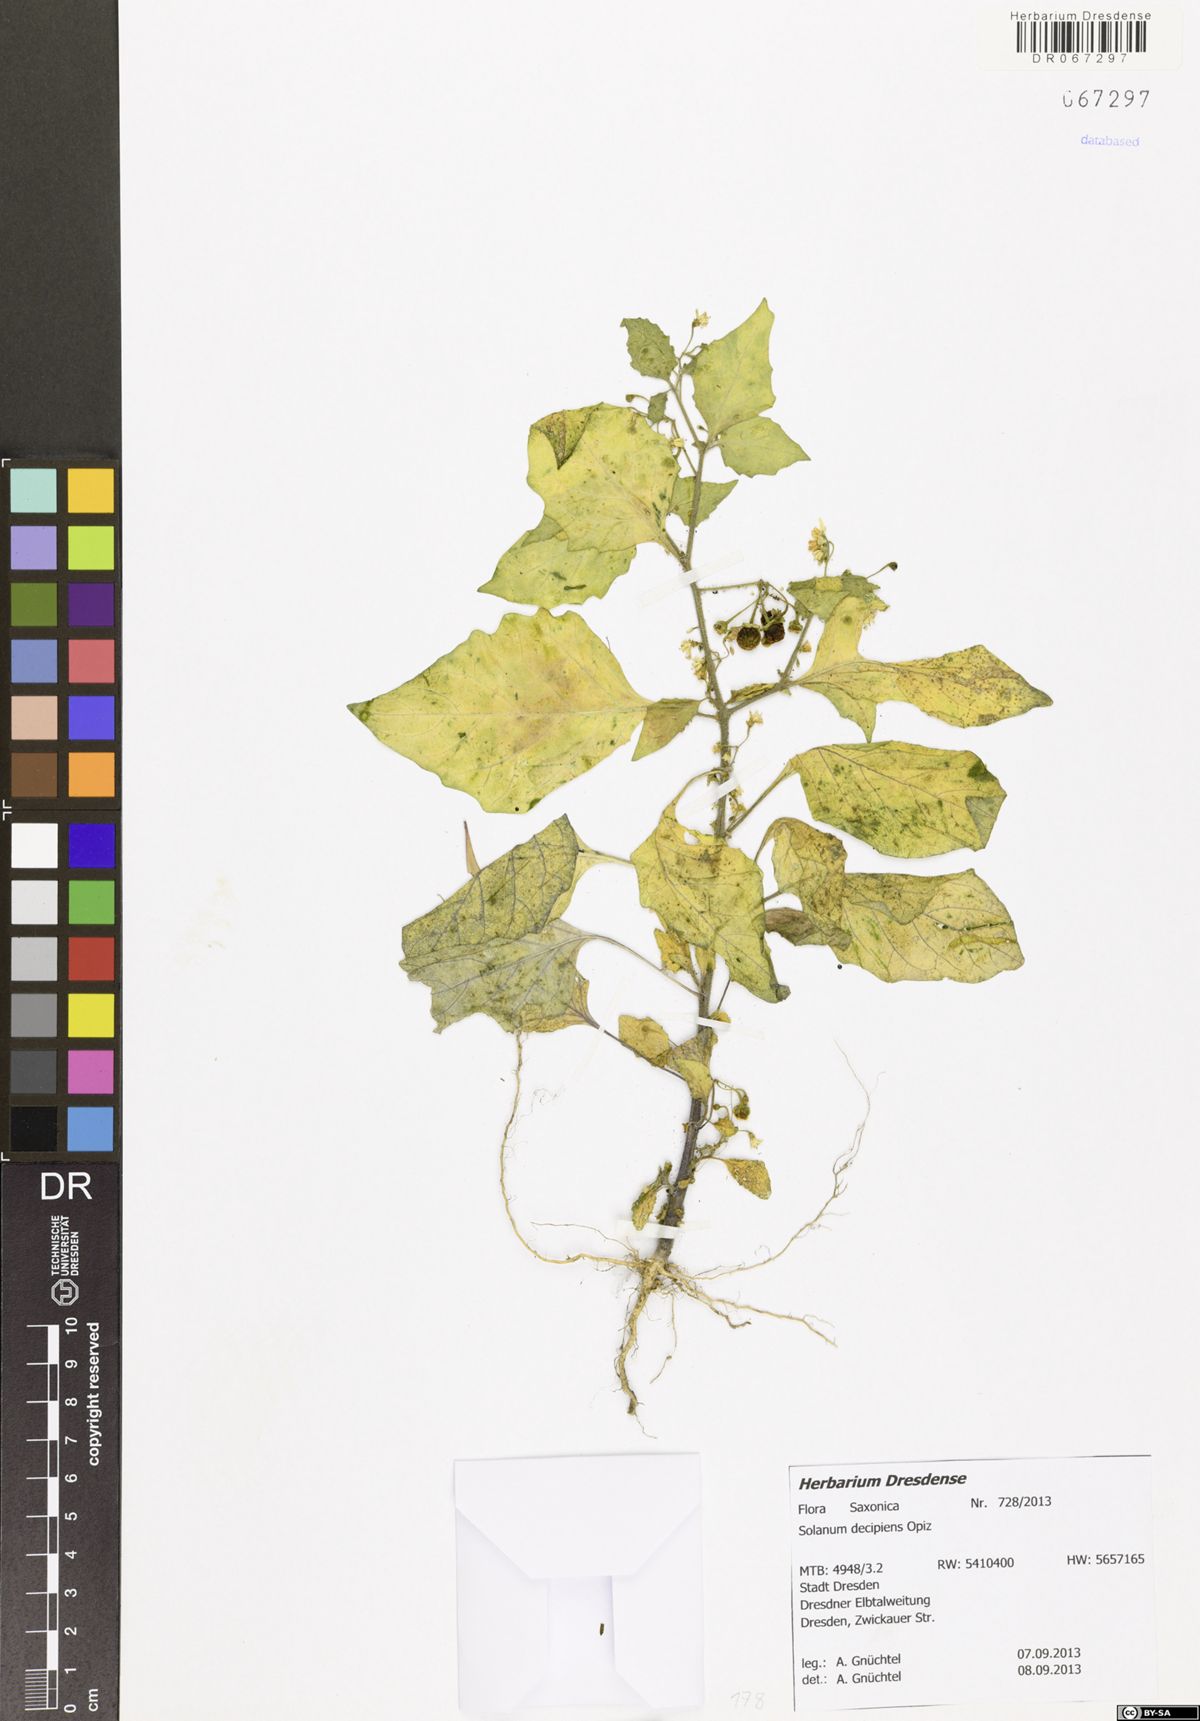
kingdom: Plantae
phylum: Tracheophyta
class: Magnoliopsida
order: Solanales
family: Solanaceae
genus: Solanum
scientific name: Solanum decipiens
